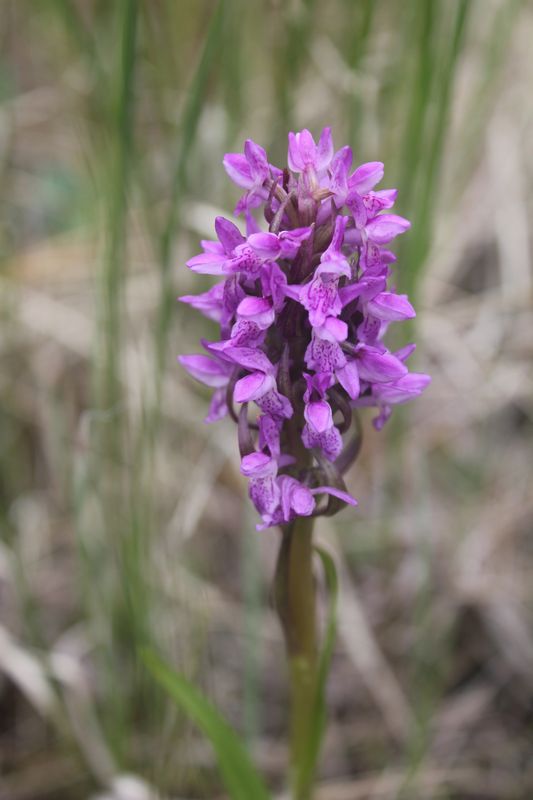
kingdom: Plantae
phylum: Tracheophyta
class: Liliopsida
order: Asparagales
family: Orchidaceae
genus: Dactylorhiza
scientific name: Dactylorhiza incarnata
